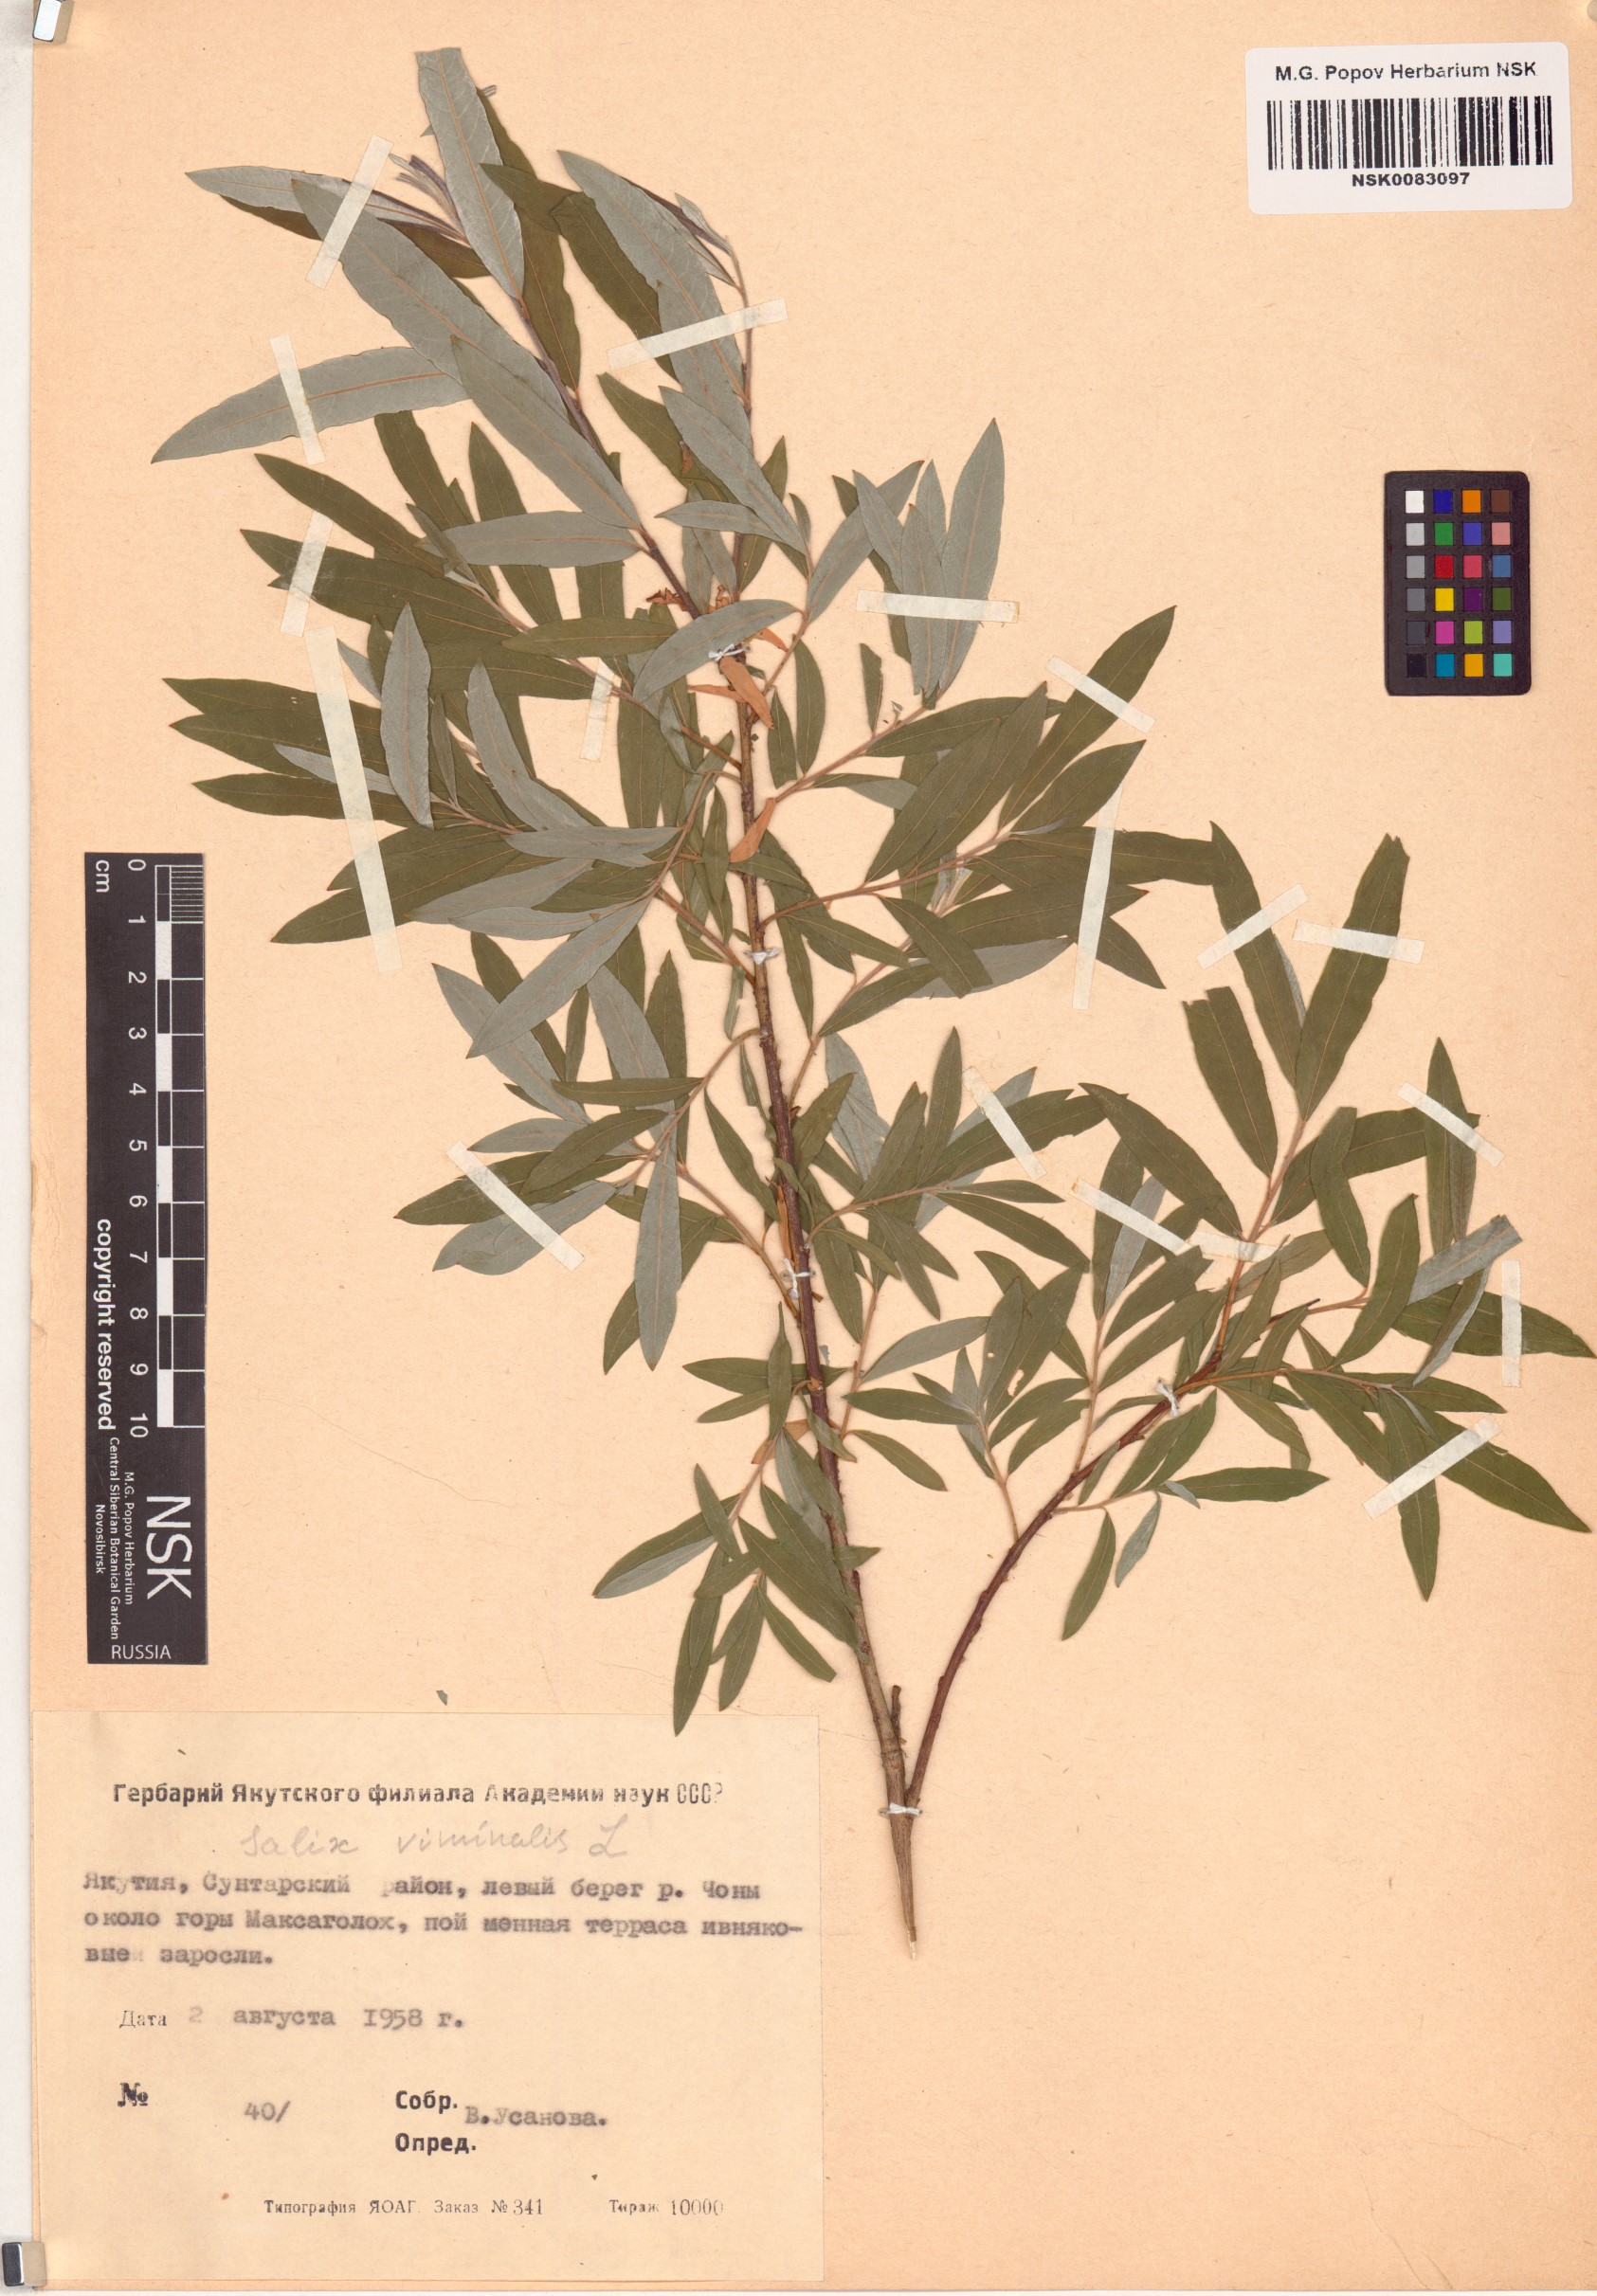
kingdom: Plantae
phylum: Tracheophyta
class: Magnoliopsida
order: Malpighiales
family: Salicaceae
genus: Salix
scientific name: Salix viminalis
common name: Osier
